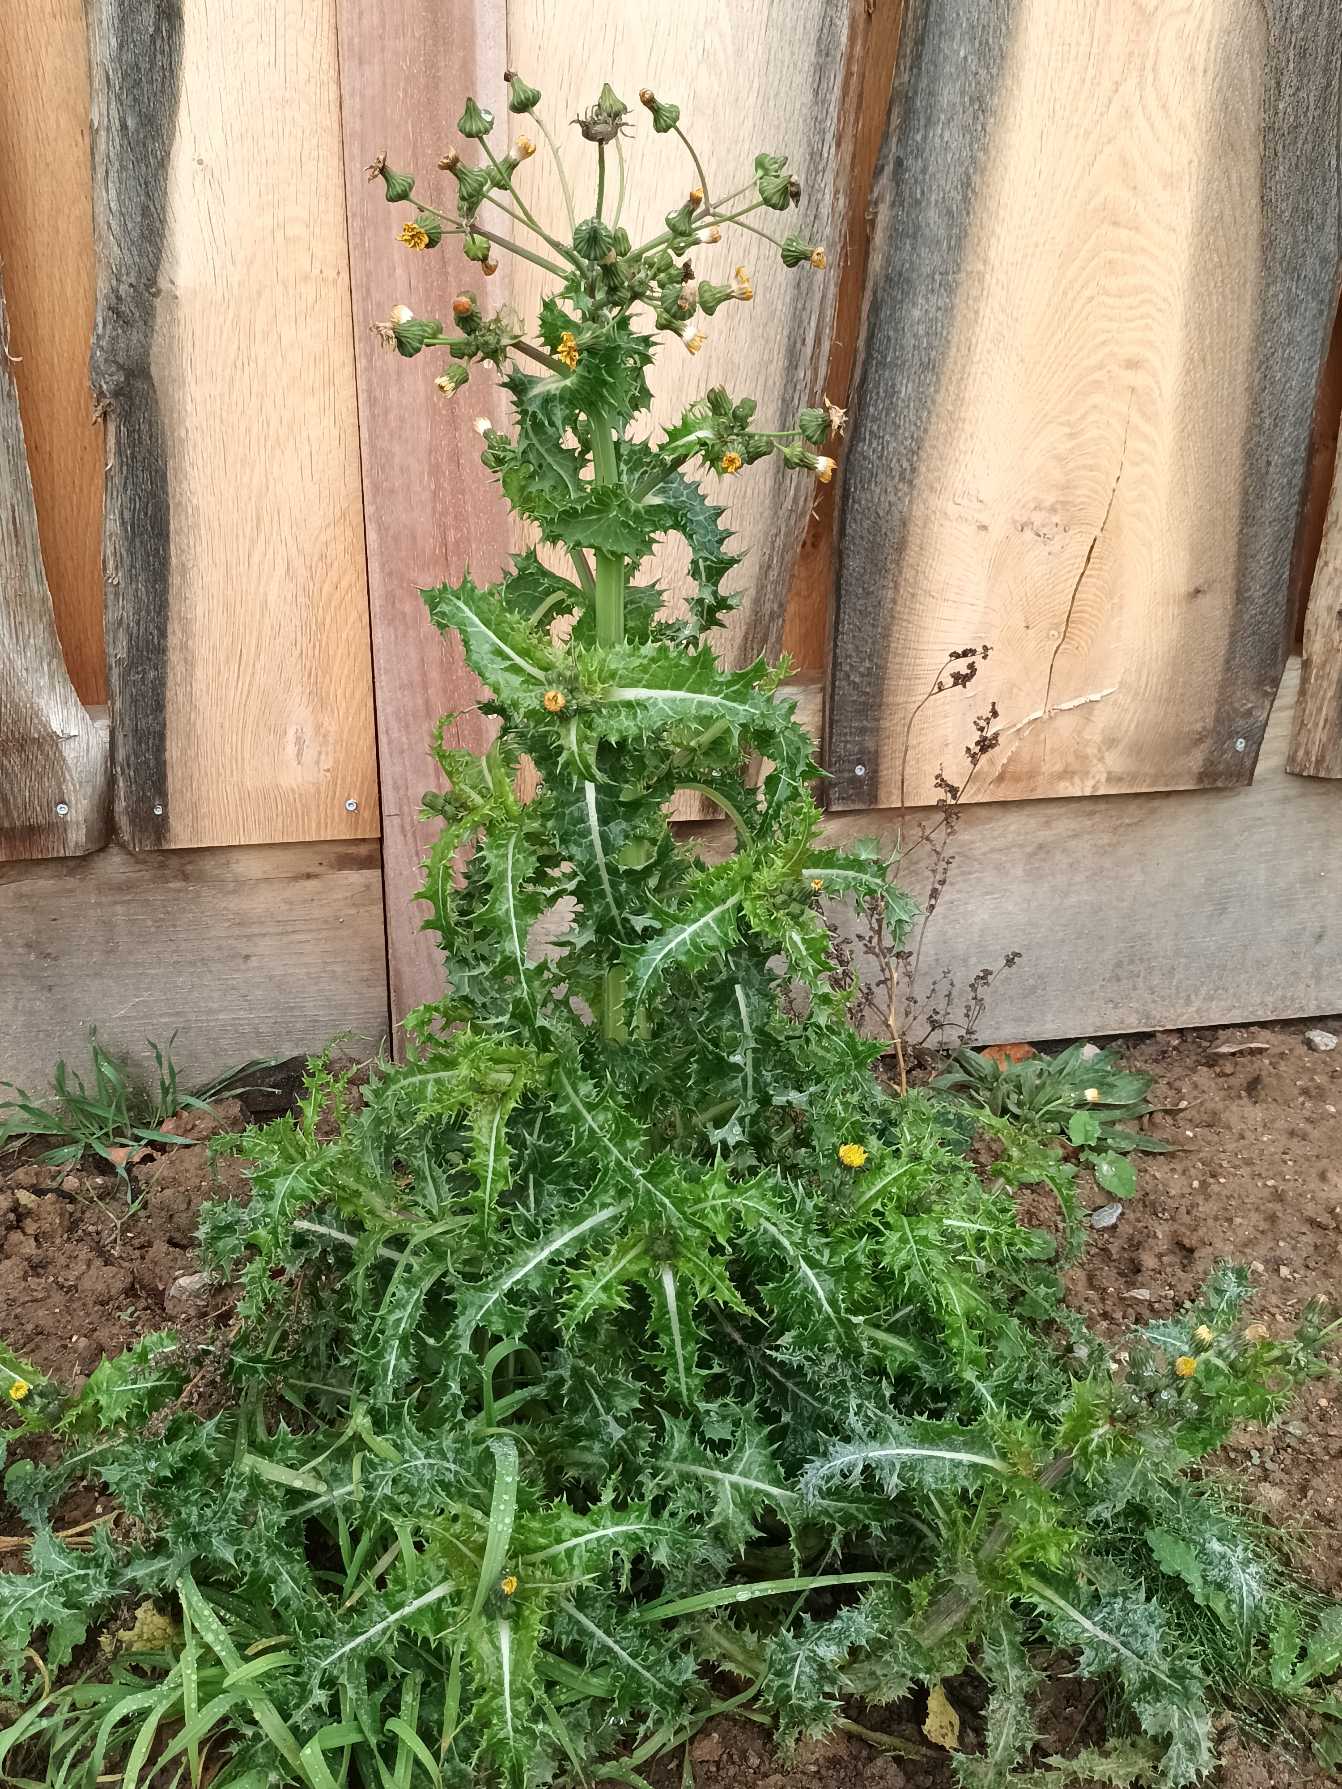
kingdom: Plantae
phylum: Tracheophyta
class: Magnoliopsida
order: Asterales
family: Asteraceae
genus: Sonchus
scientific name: Sonchus asper
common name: Ru svinemælk
